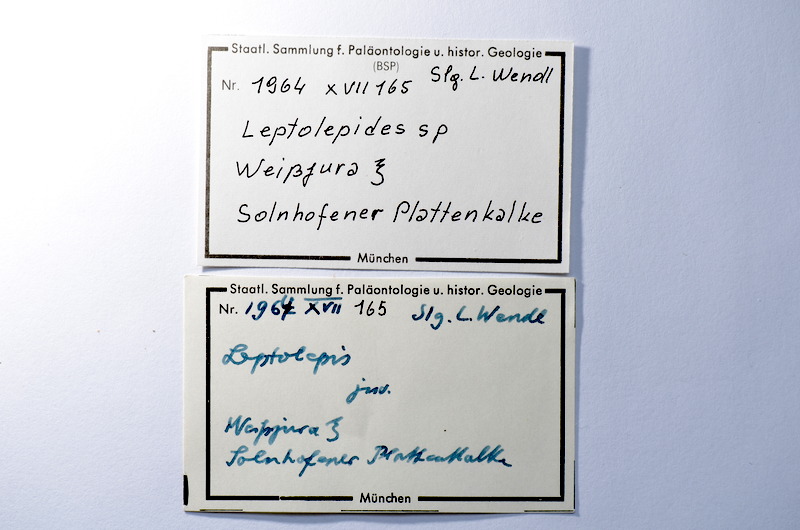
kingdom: Animalia
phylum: Chordata
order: Salmoniformes
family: Orthogonikleithridae
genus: Leptolepides
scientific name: Leptolepides
